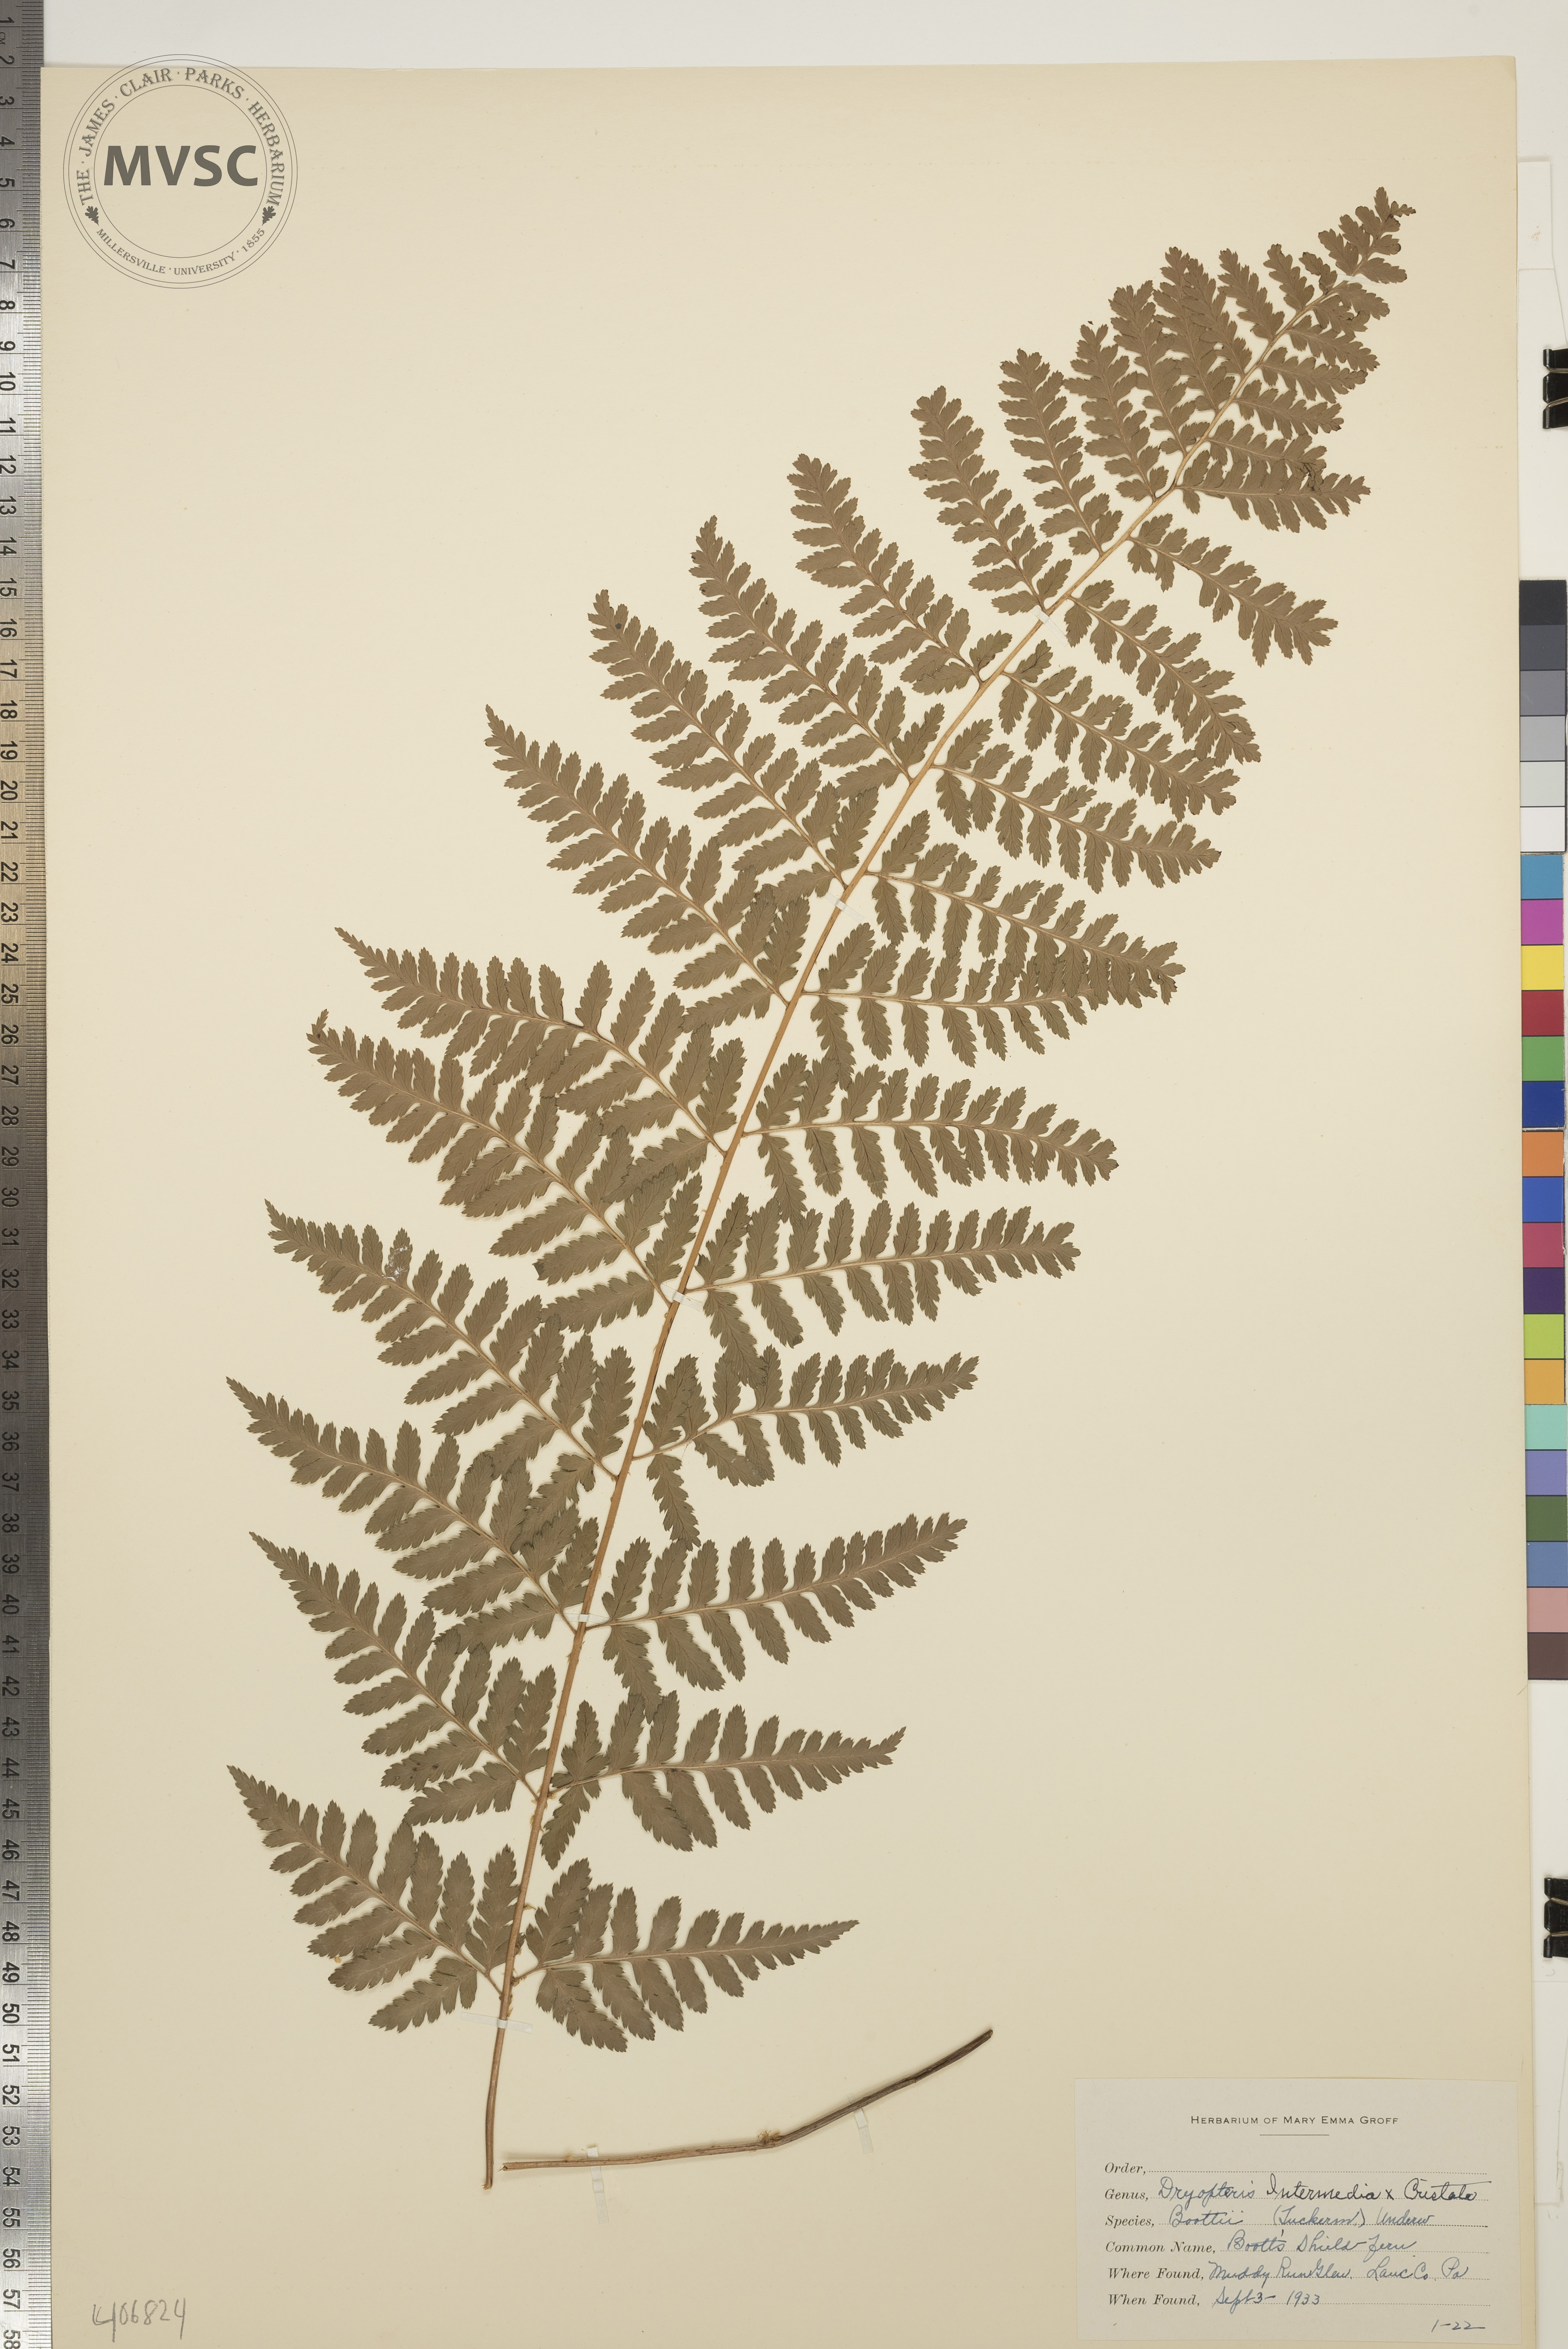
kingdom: Plantae
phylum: Tracheophyta
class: Polypodiopsida
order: Polypodiales
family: Dryopteridaceae
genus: Dryopteris
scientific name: Dryopteris
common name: Boott's Shield Fern
